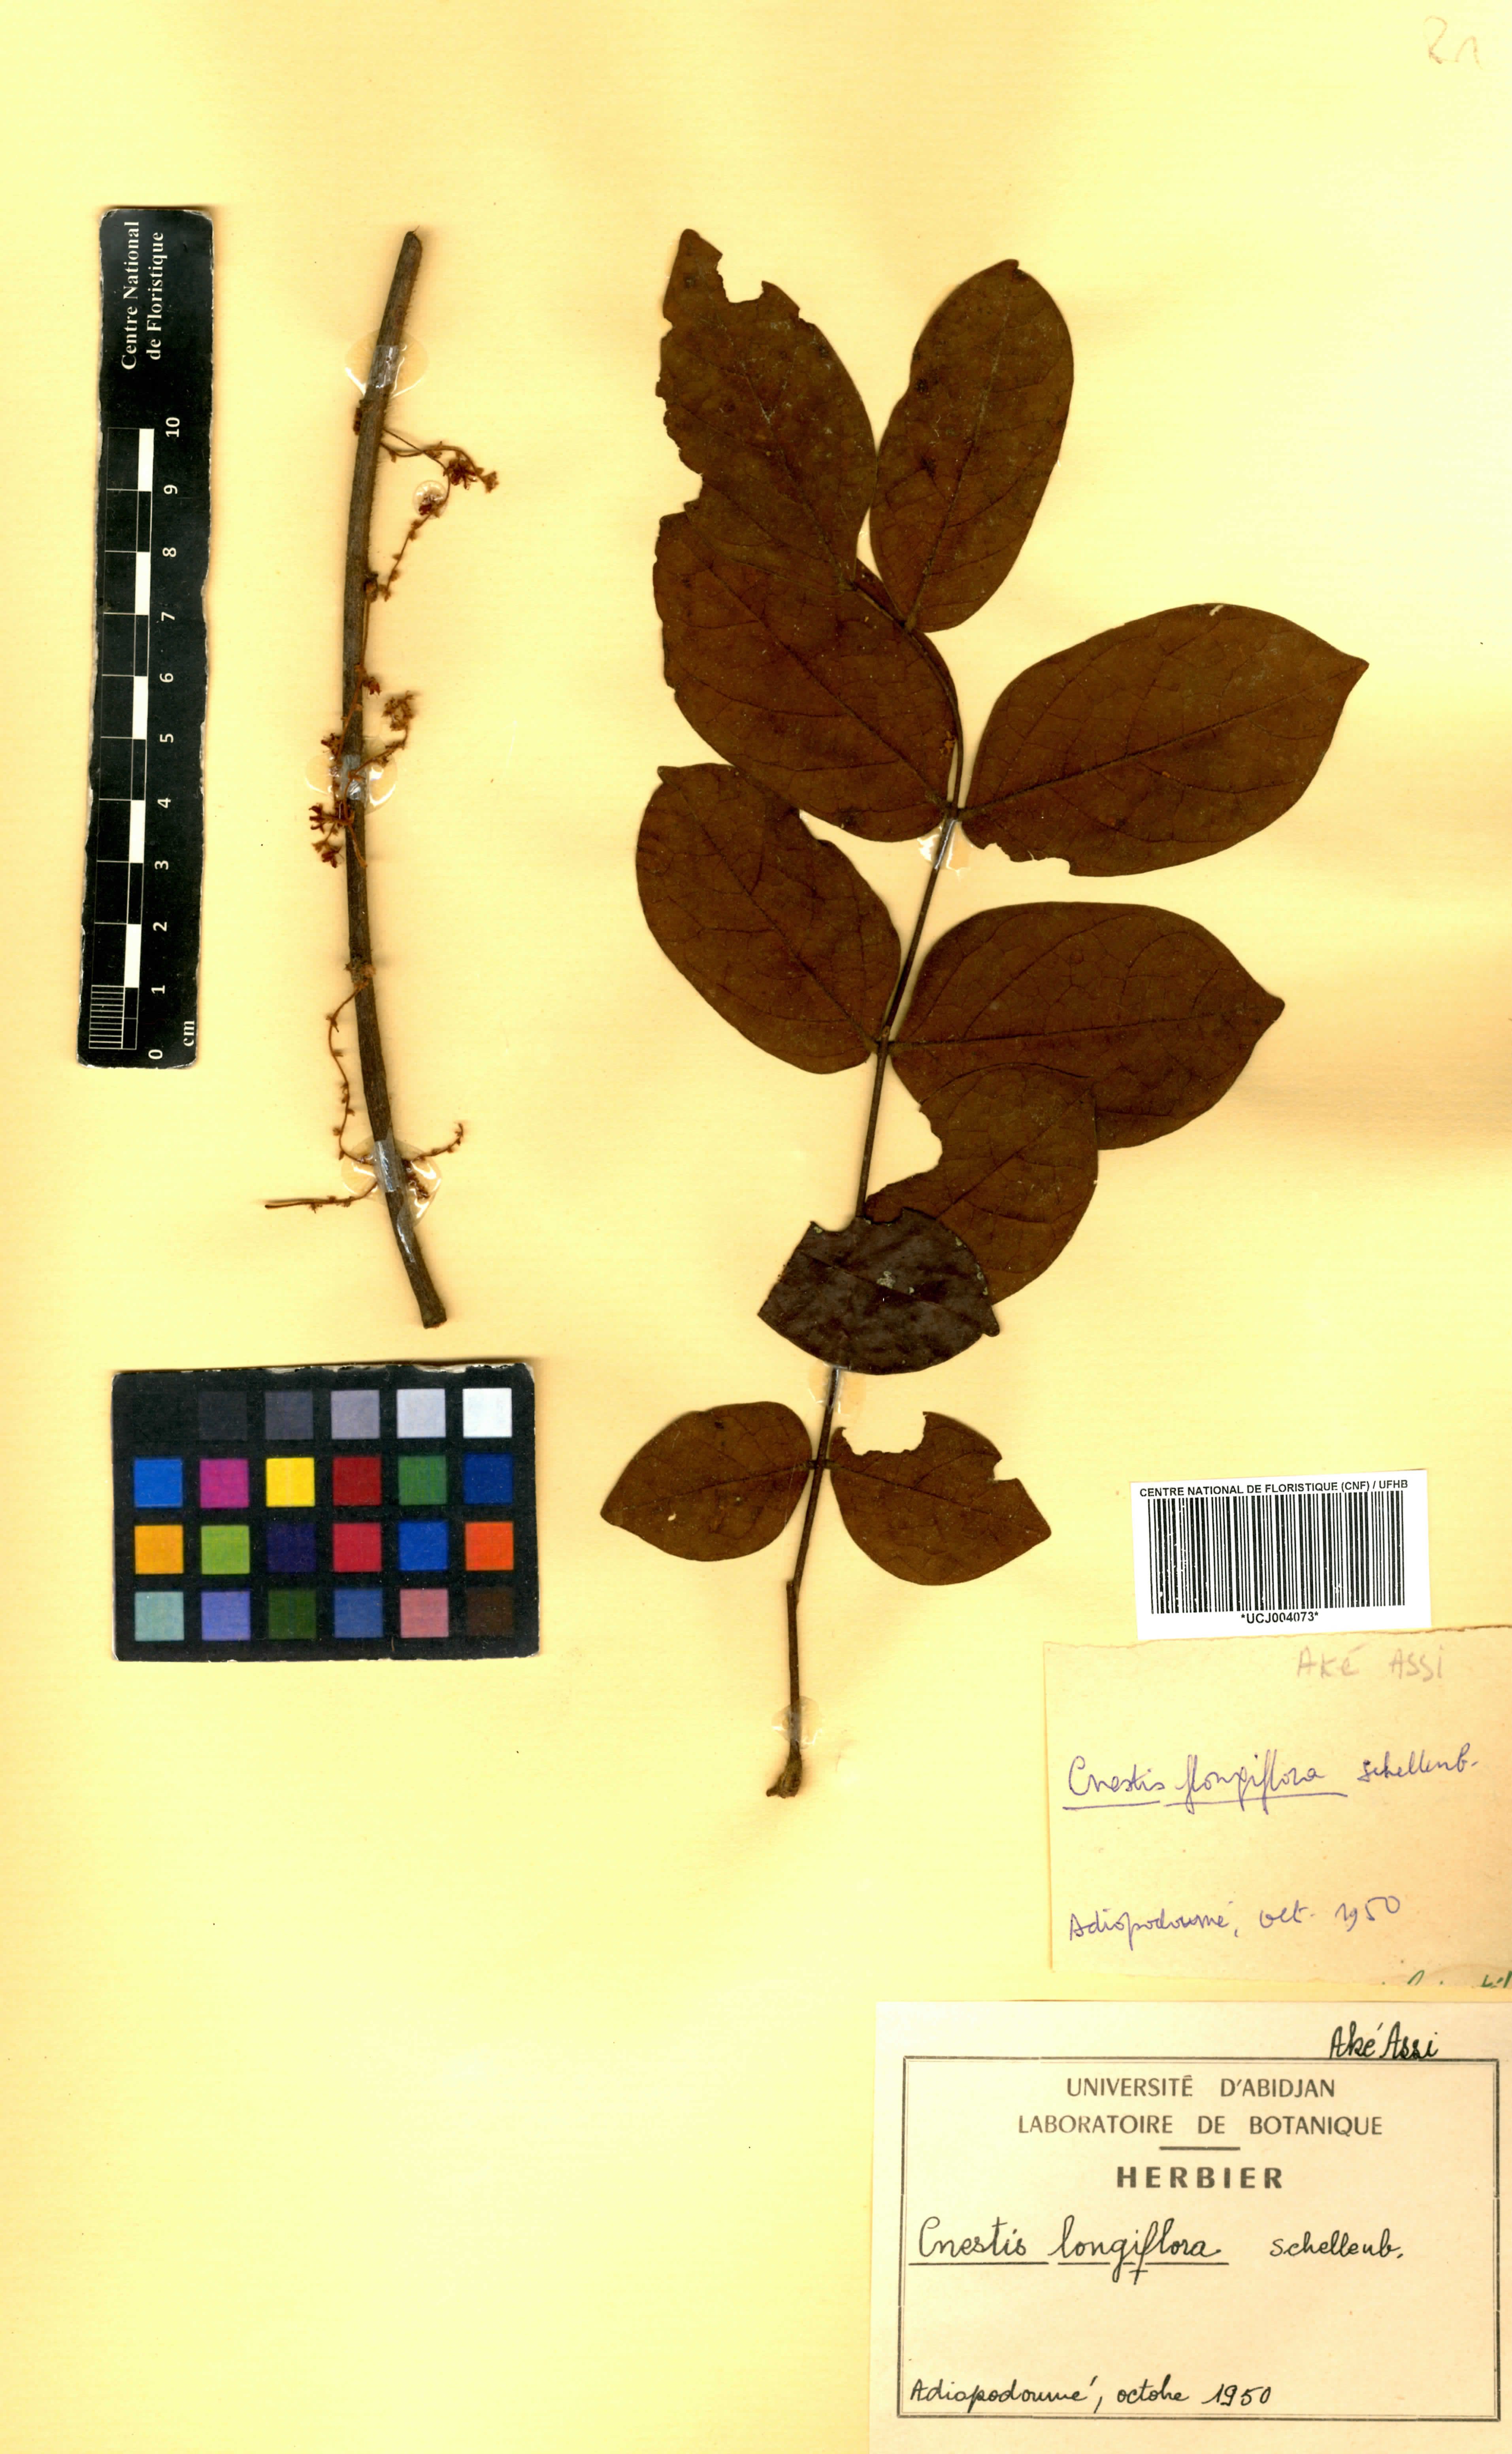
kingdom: Plantae
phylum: Tracheophyta
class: Magnoliopsida
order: Oxalidales
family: Connaraceae
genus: Cnestis
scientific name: Cnestis corniculata
